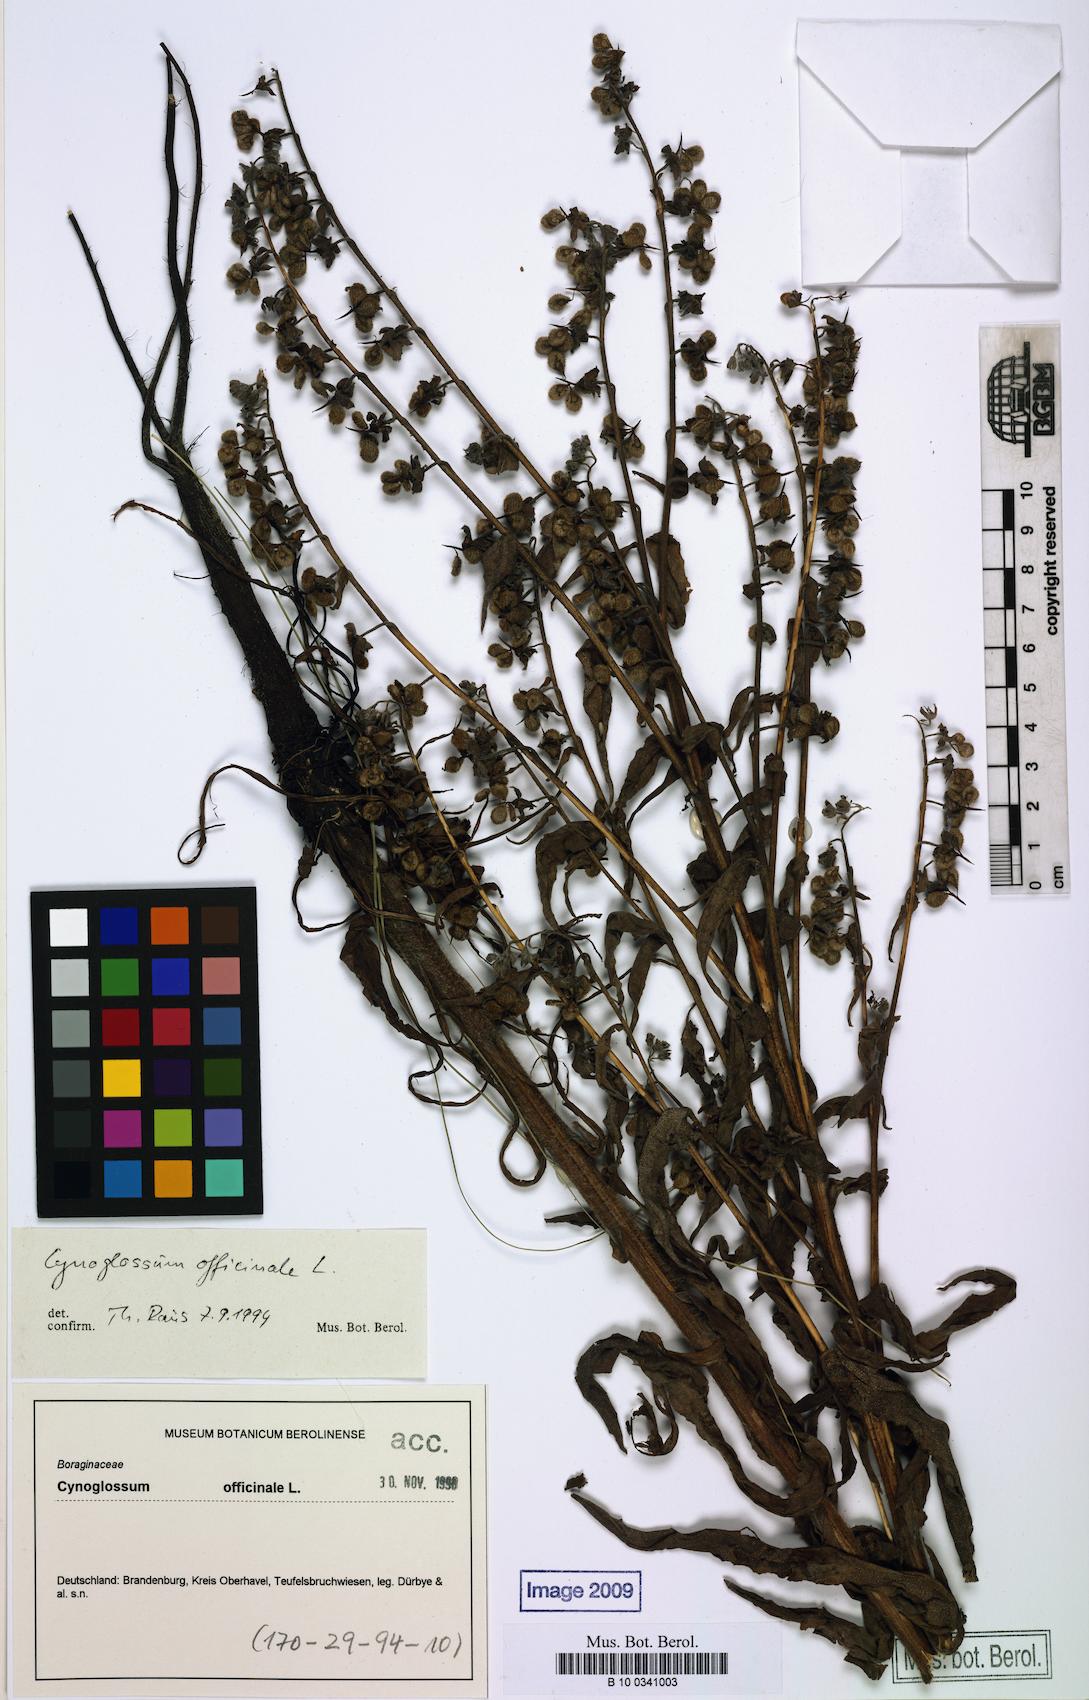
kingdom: Plantae
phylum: Tracheophyta
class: Magnoliopsida
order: Boraginales
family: Boraginaceae
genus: Cynoglossum
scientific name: Cynoglossum officinale
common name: Hound's-tongue
